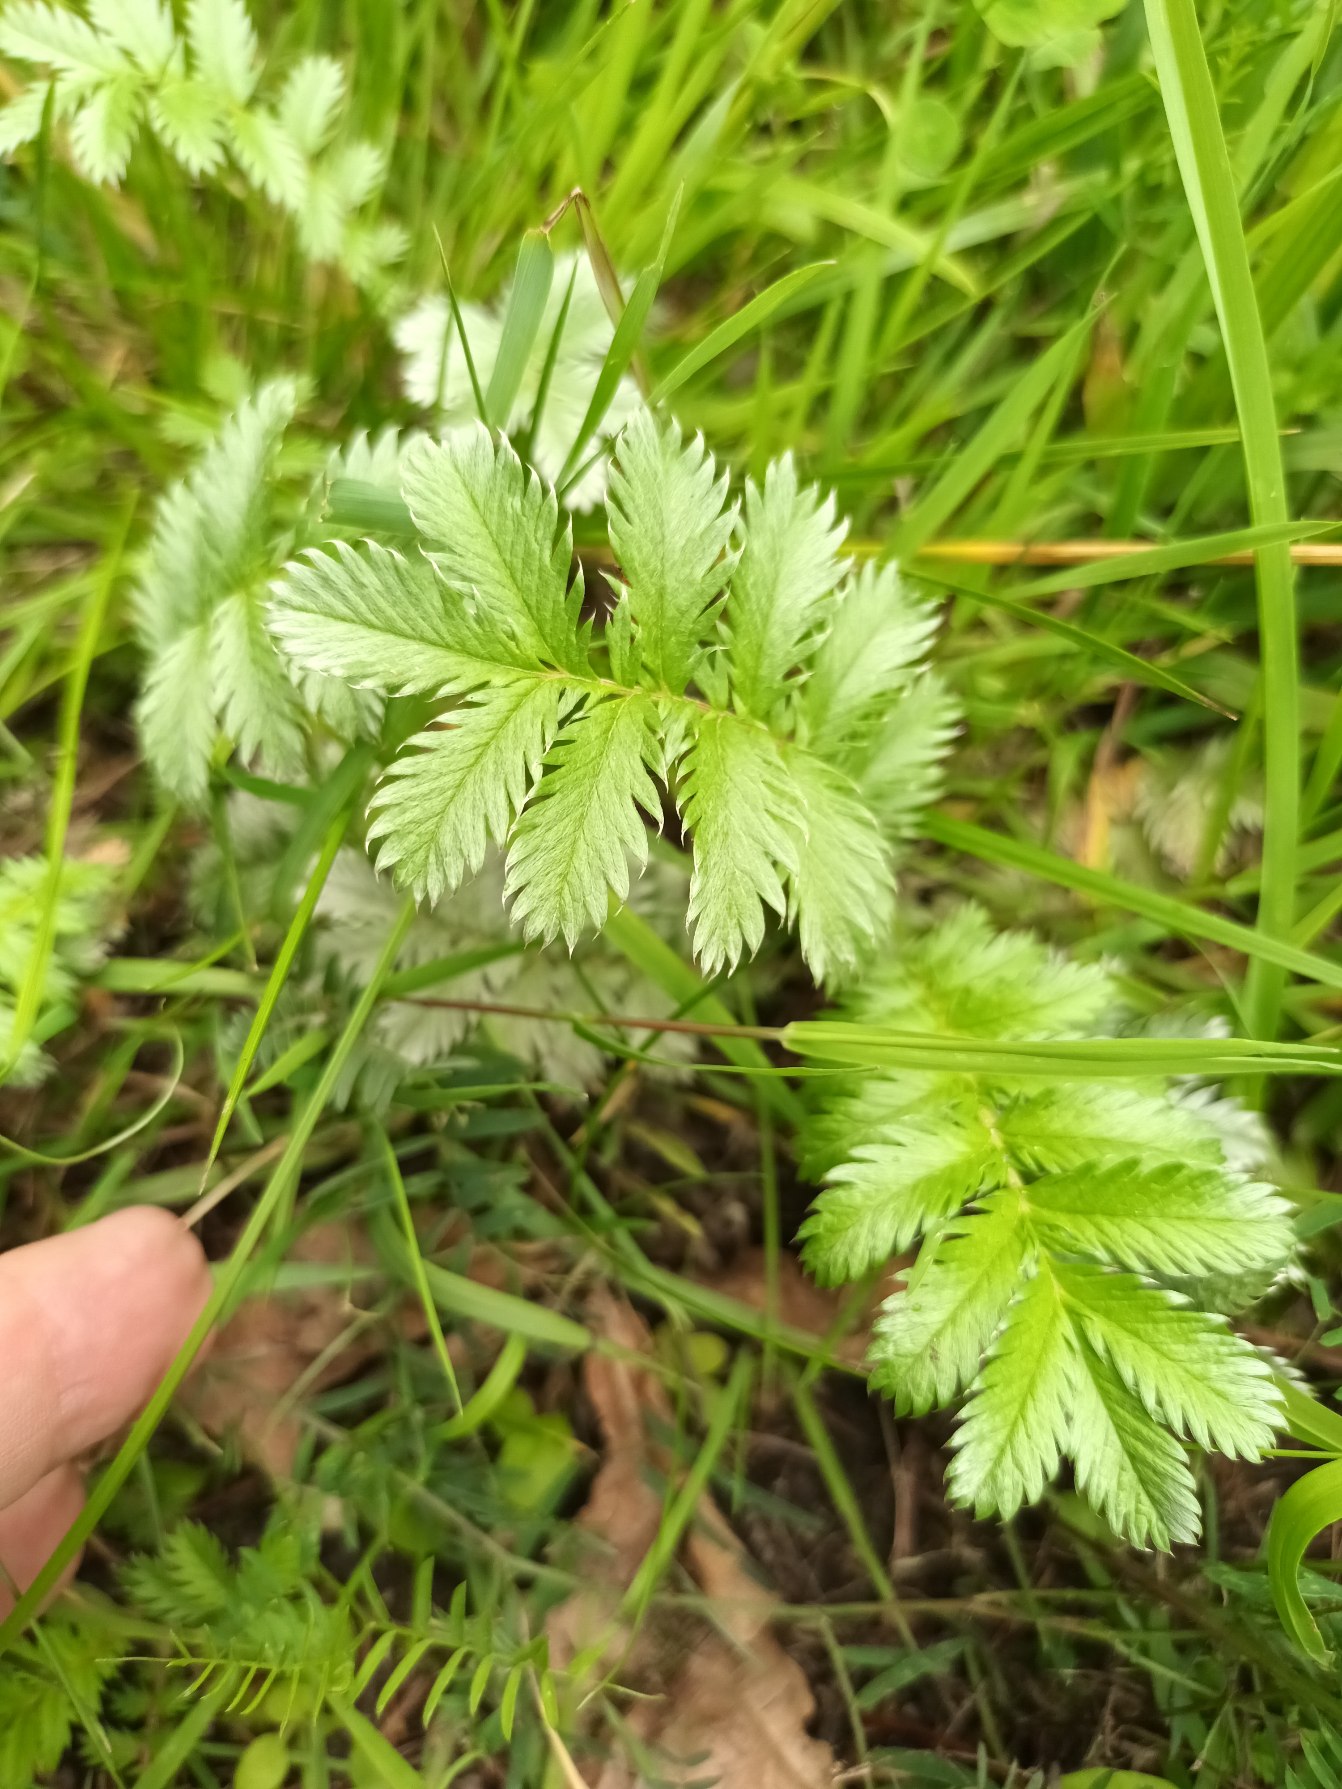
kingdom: Plantae
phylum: Tracheophyta
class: Magnoliopsida
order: Rosales
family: Rosaceae
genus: Argentina
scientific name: Argentina anserina
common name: Gåsepotentil
